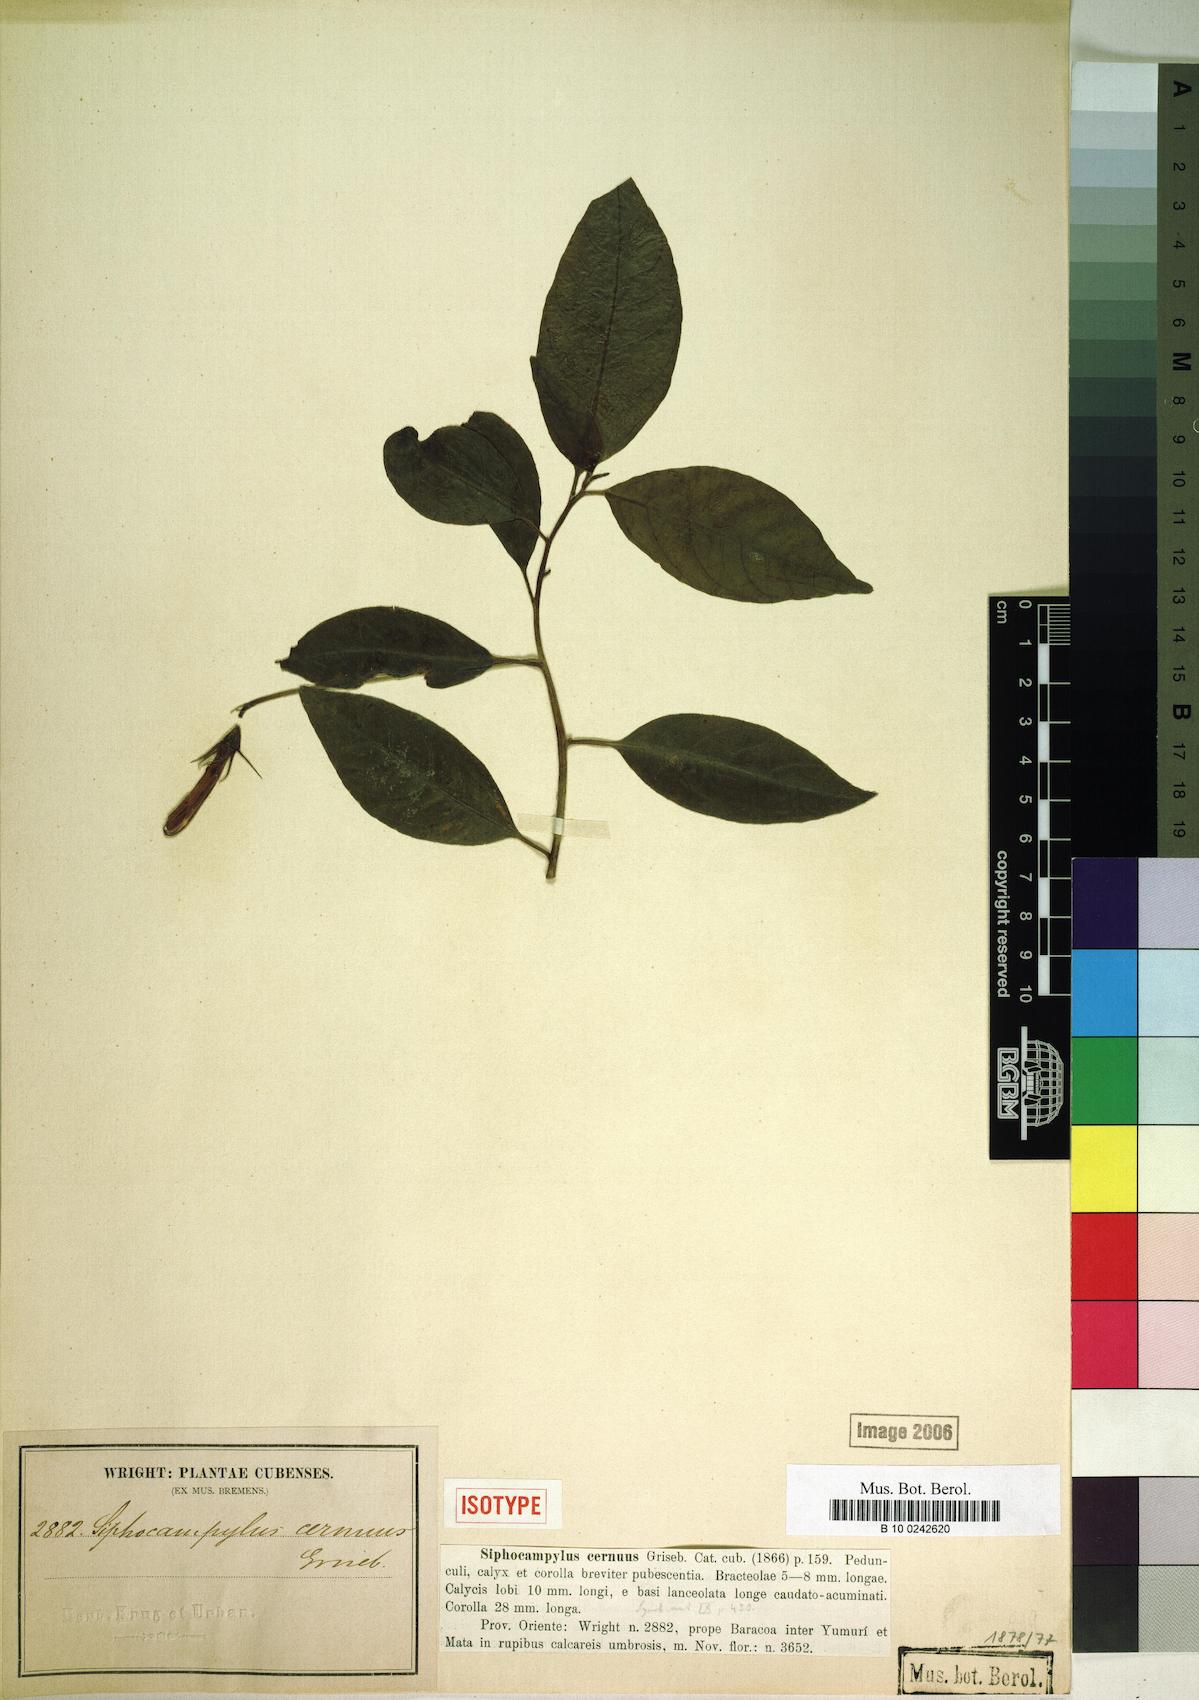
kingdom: Plantae
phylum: Tracheophyta
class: Magnoliopsida
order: Asterales
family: Campanulaceae
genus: Siphocampylus
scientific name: Siphocampylus cernuus
